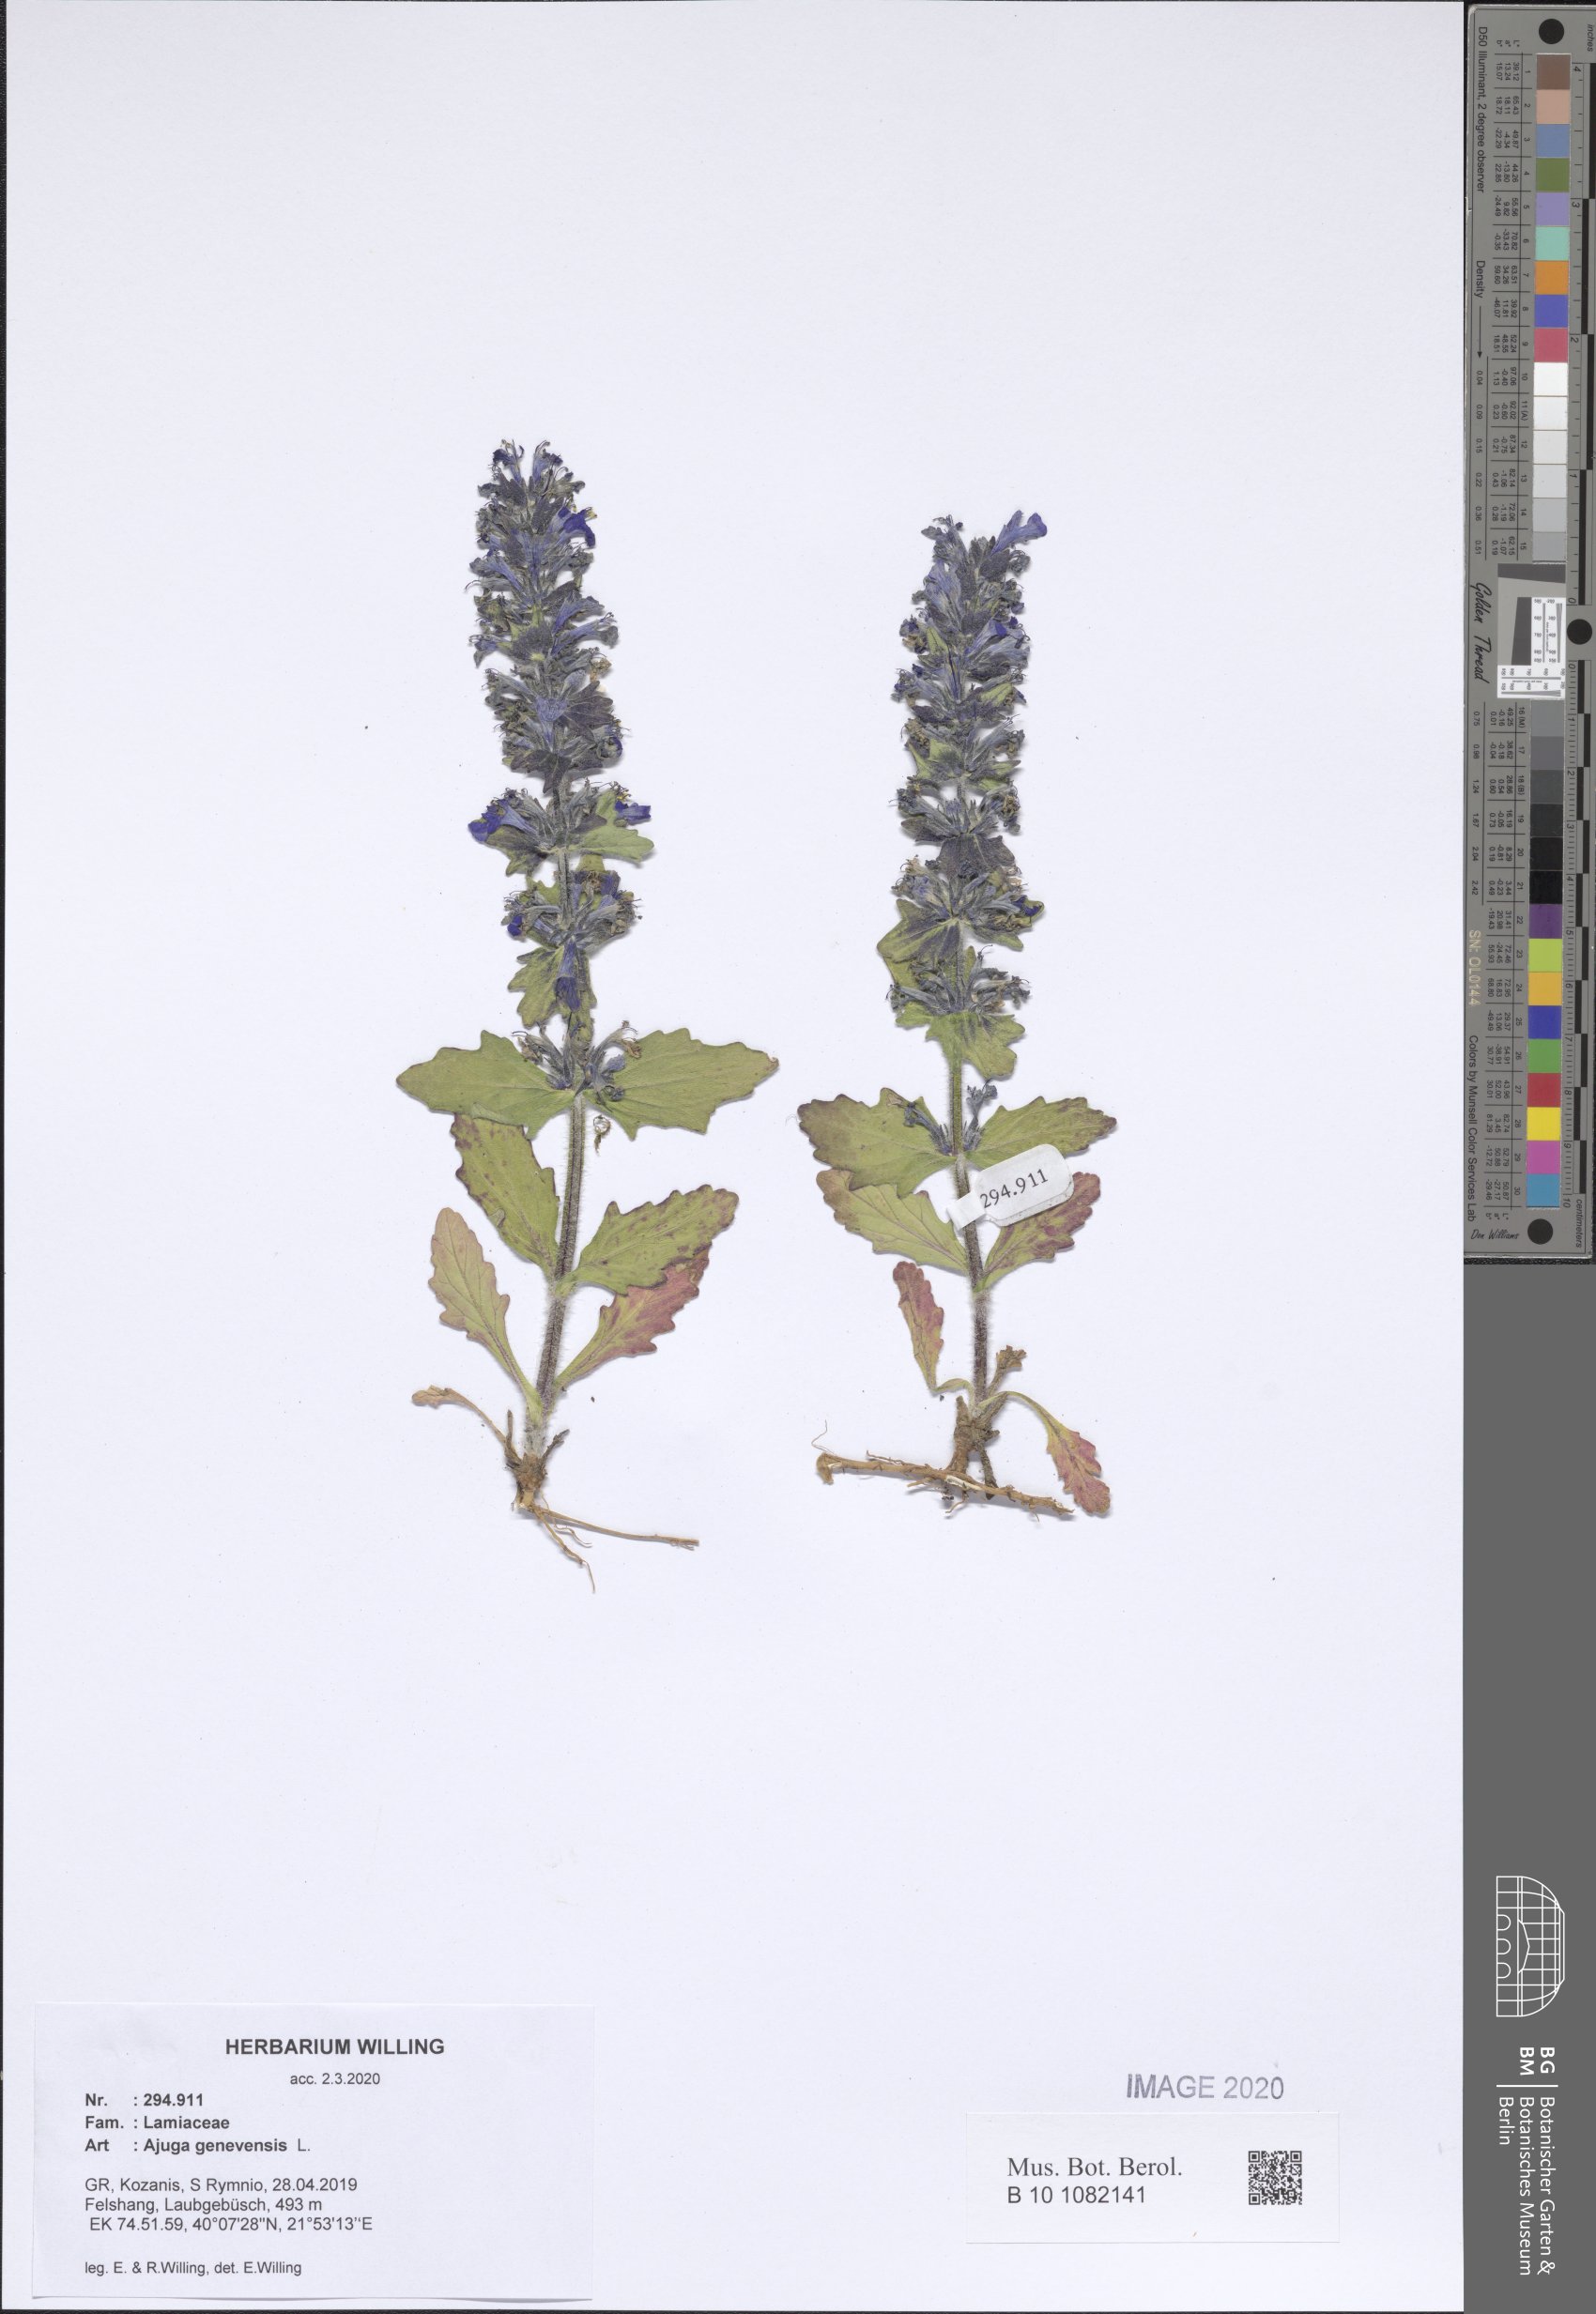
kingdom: Plantae
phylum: Tracheophyta
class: Magnoliopsida
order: Lamiales
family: Lamiaceae
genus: Ajuga
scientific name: Ajuga genevensis
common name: Blue bugle
